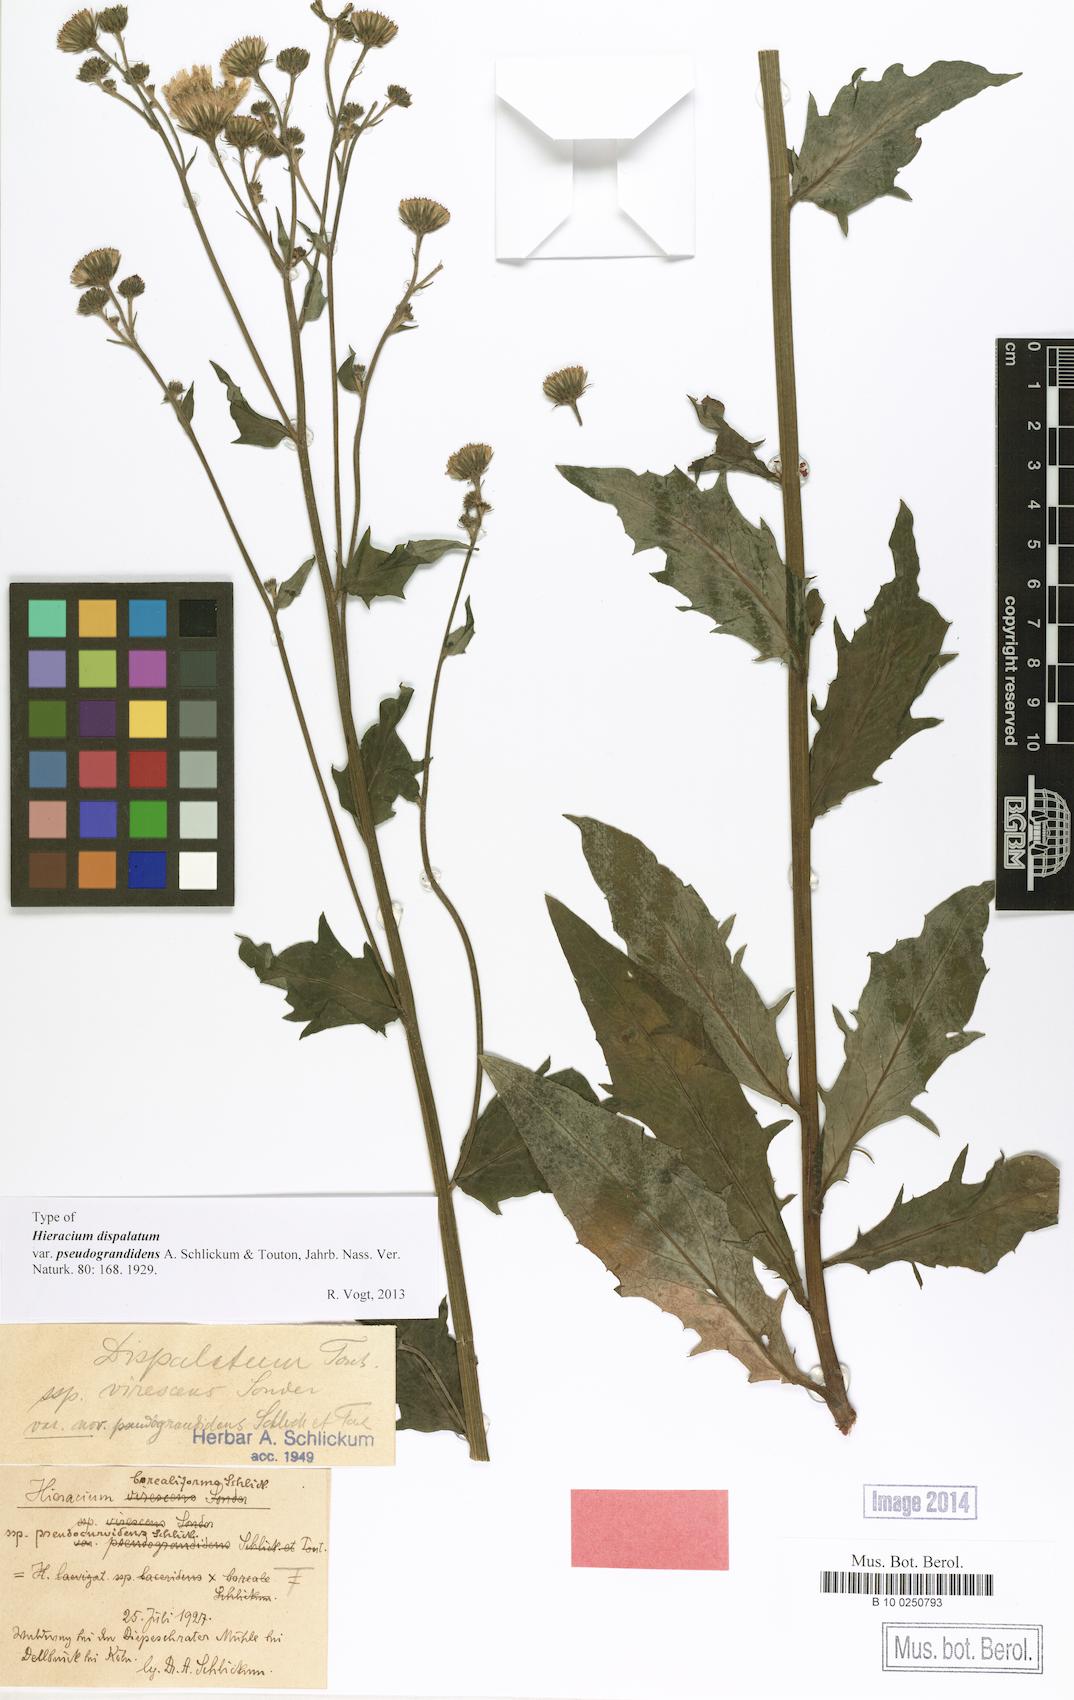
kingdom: Plantae
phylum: Tracheophyta
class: Magnoliopsida
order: Asterales
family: Asteraceae
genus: Hieracium
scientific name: Hieracium sabaudum
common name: New england hawkweed
